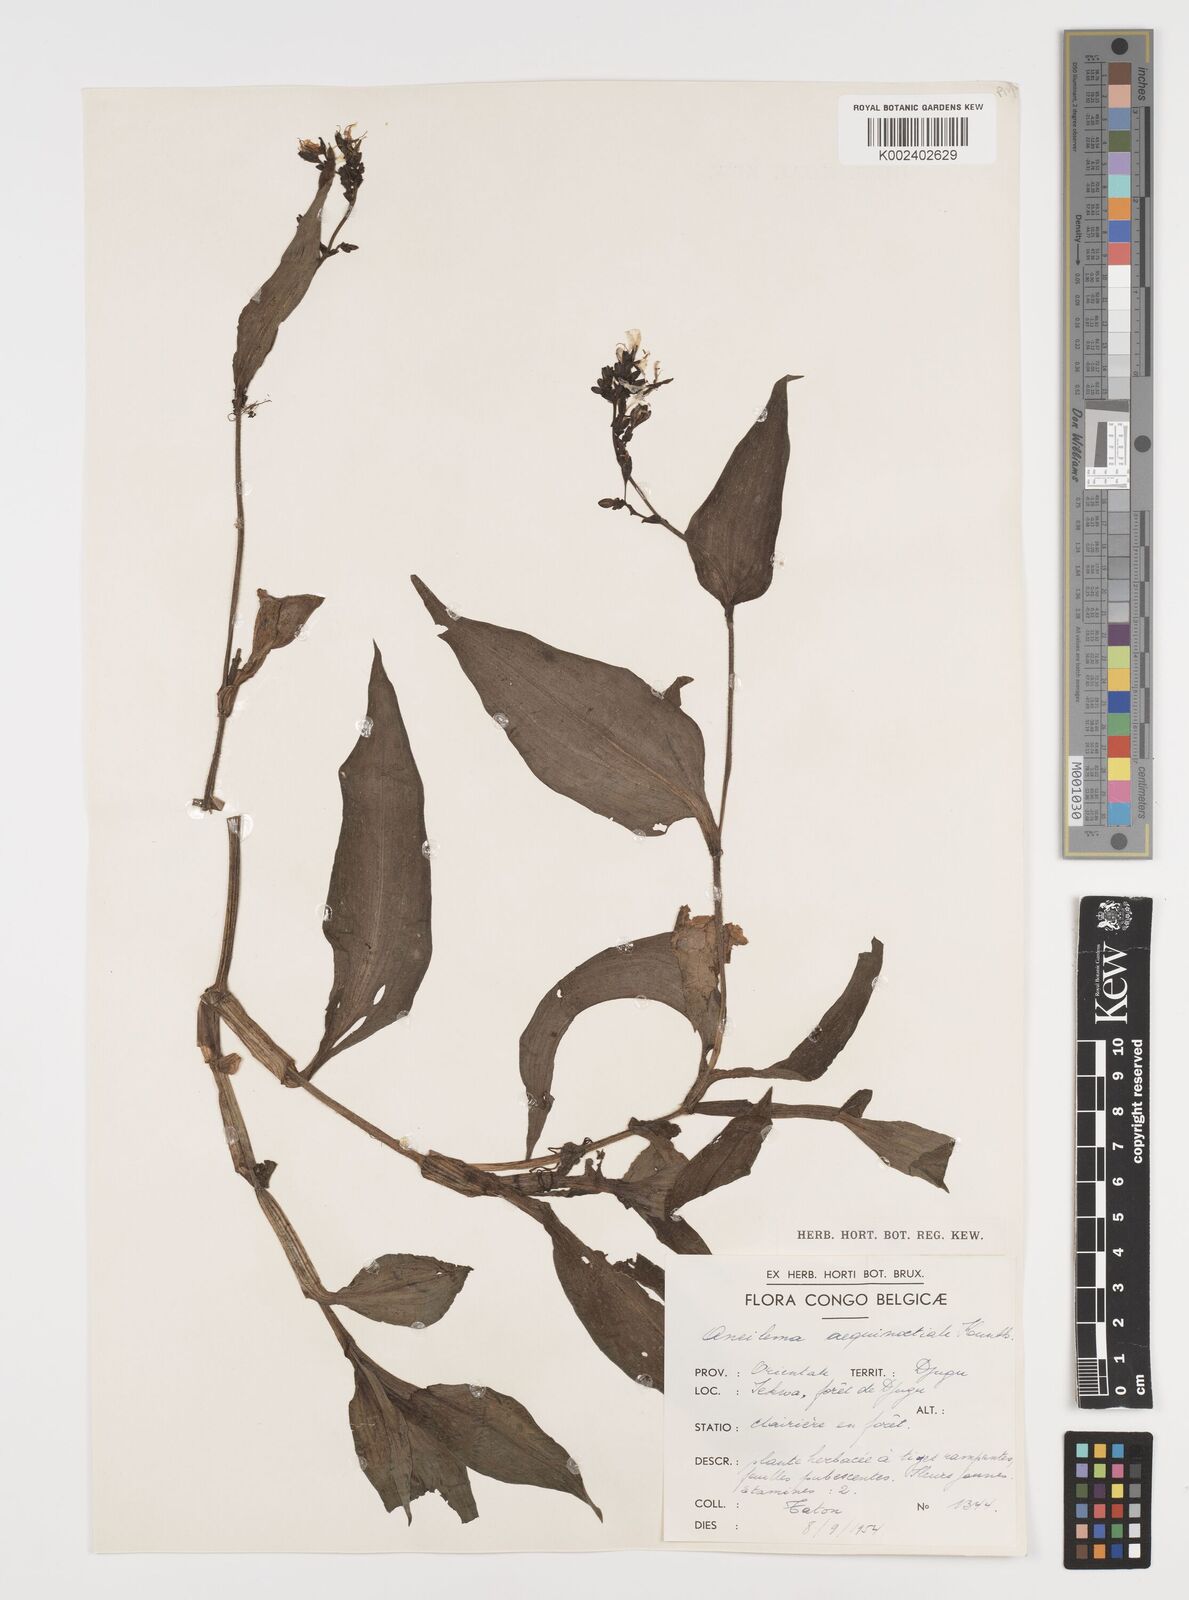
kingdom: Plantae
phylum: Tracheophyta
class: Liliopsida
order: Commelinales
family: Commelinaceae
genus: Aneilema
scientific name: Aneilema aequinoctiale
